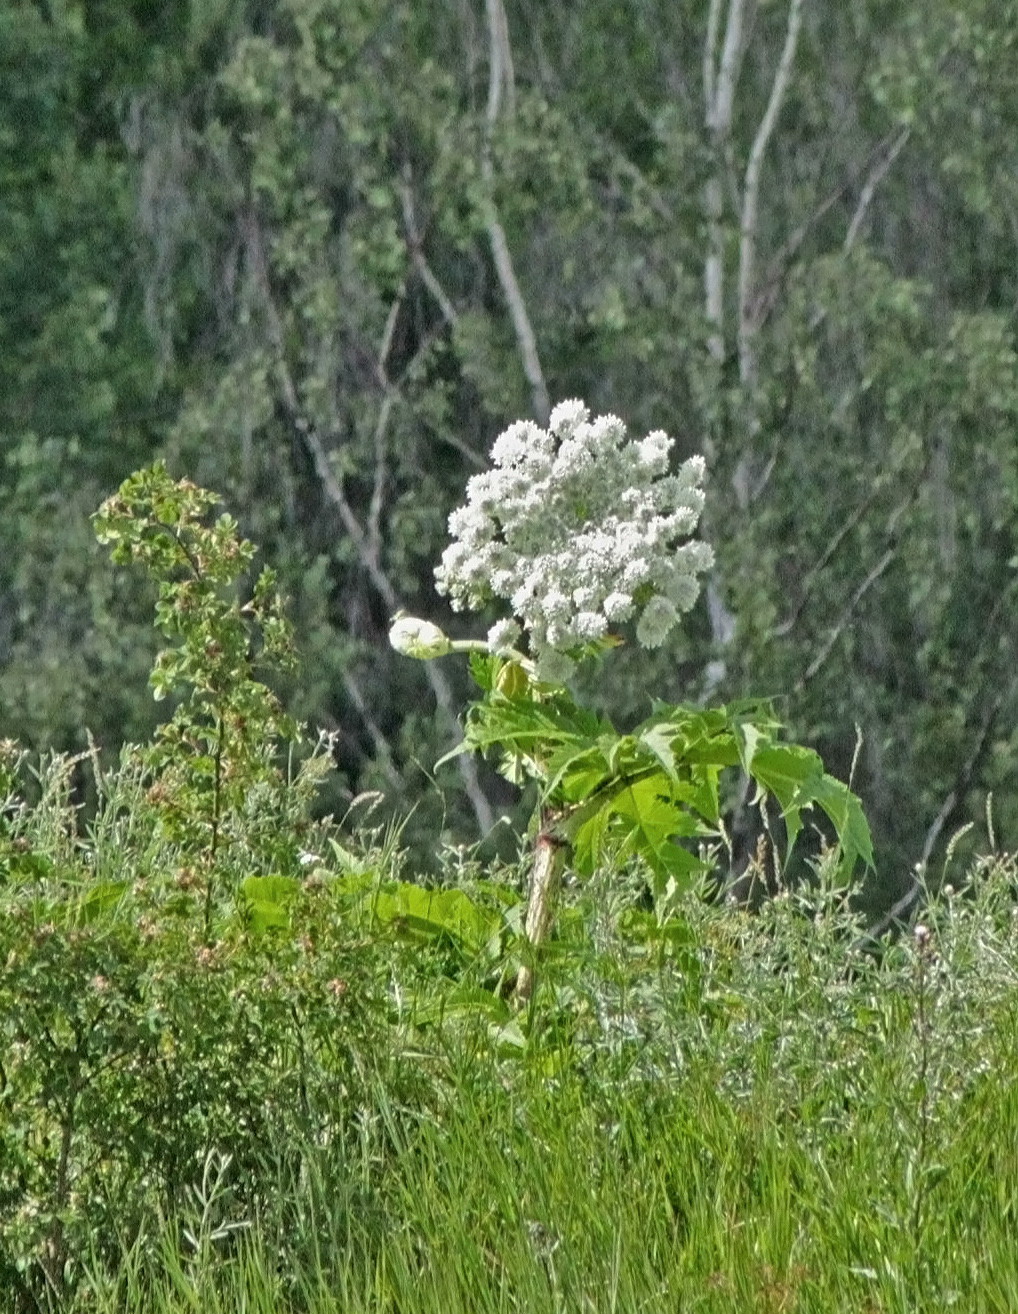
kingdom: Plantae
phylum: Tracheophyta
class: Magnoliopsida
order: Apiales
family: Apiaceae
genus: Heracleum
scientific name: Heracleum
